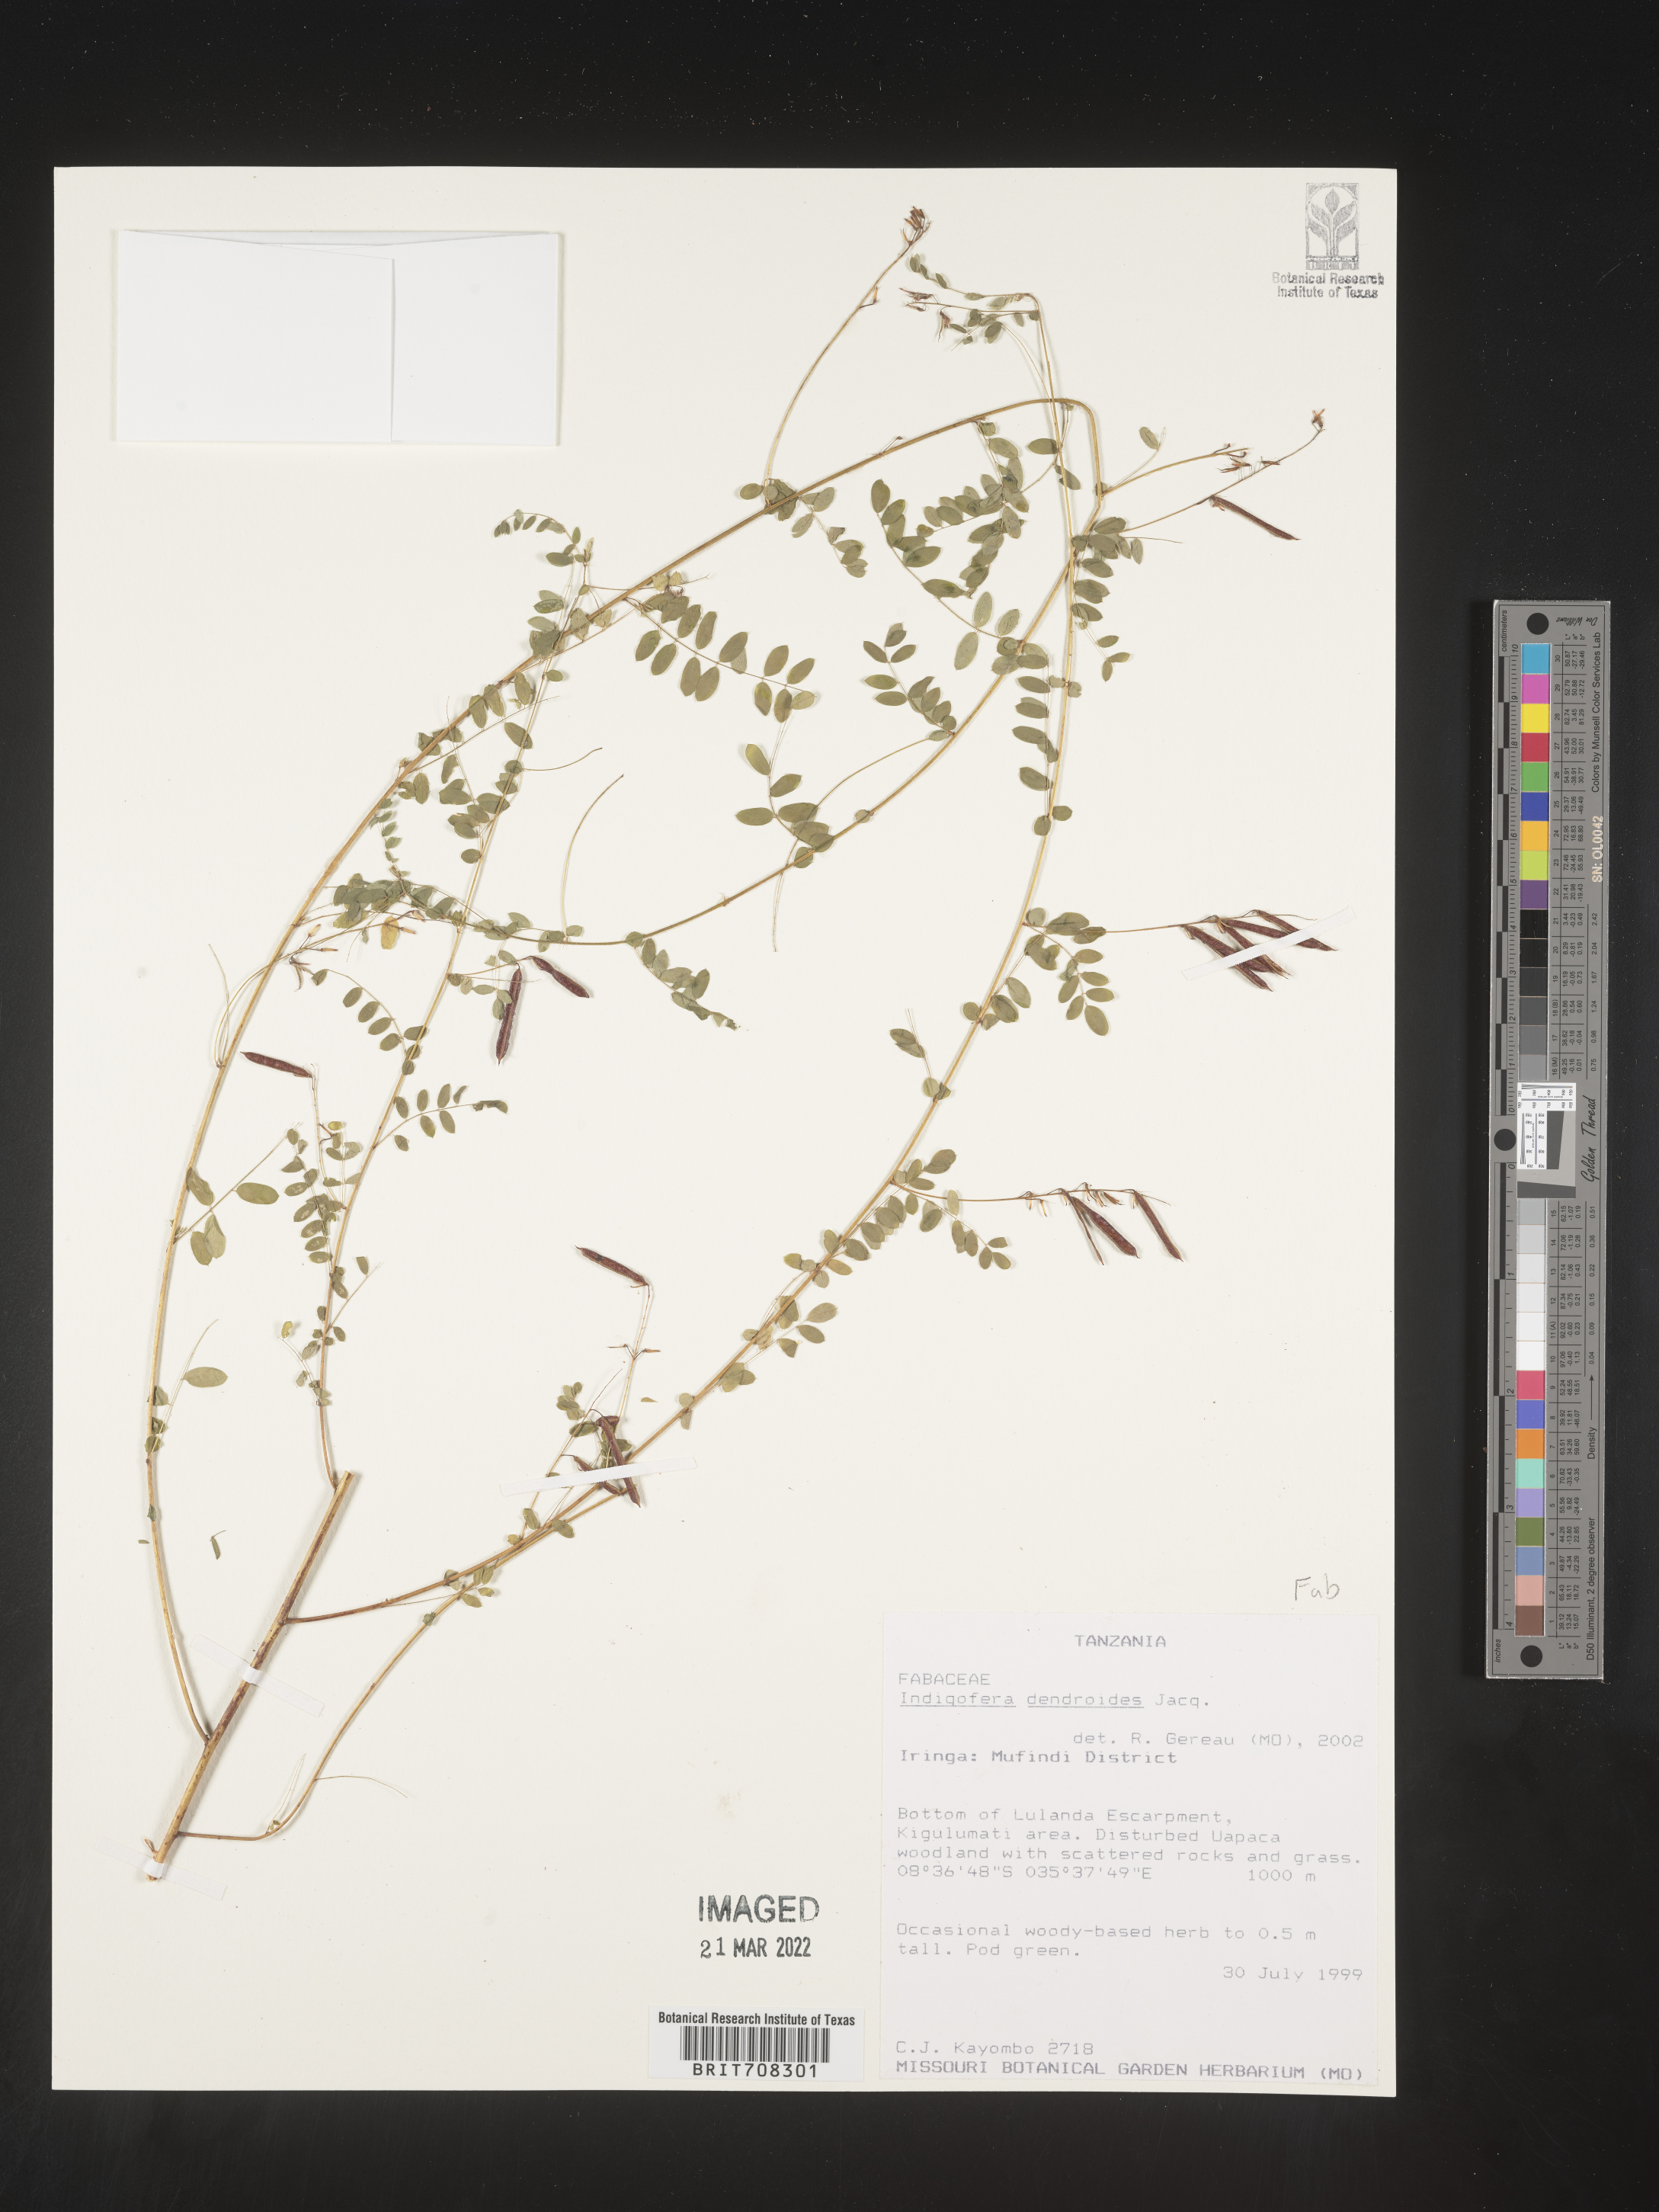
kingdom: Plantae
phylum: Tracheophyta
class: Magnoliopsida
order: Fabales
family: Fabaceae
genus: Indigofera
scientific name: Indigofera
